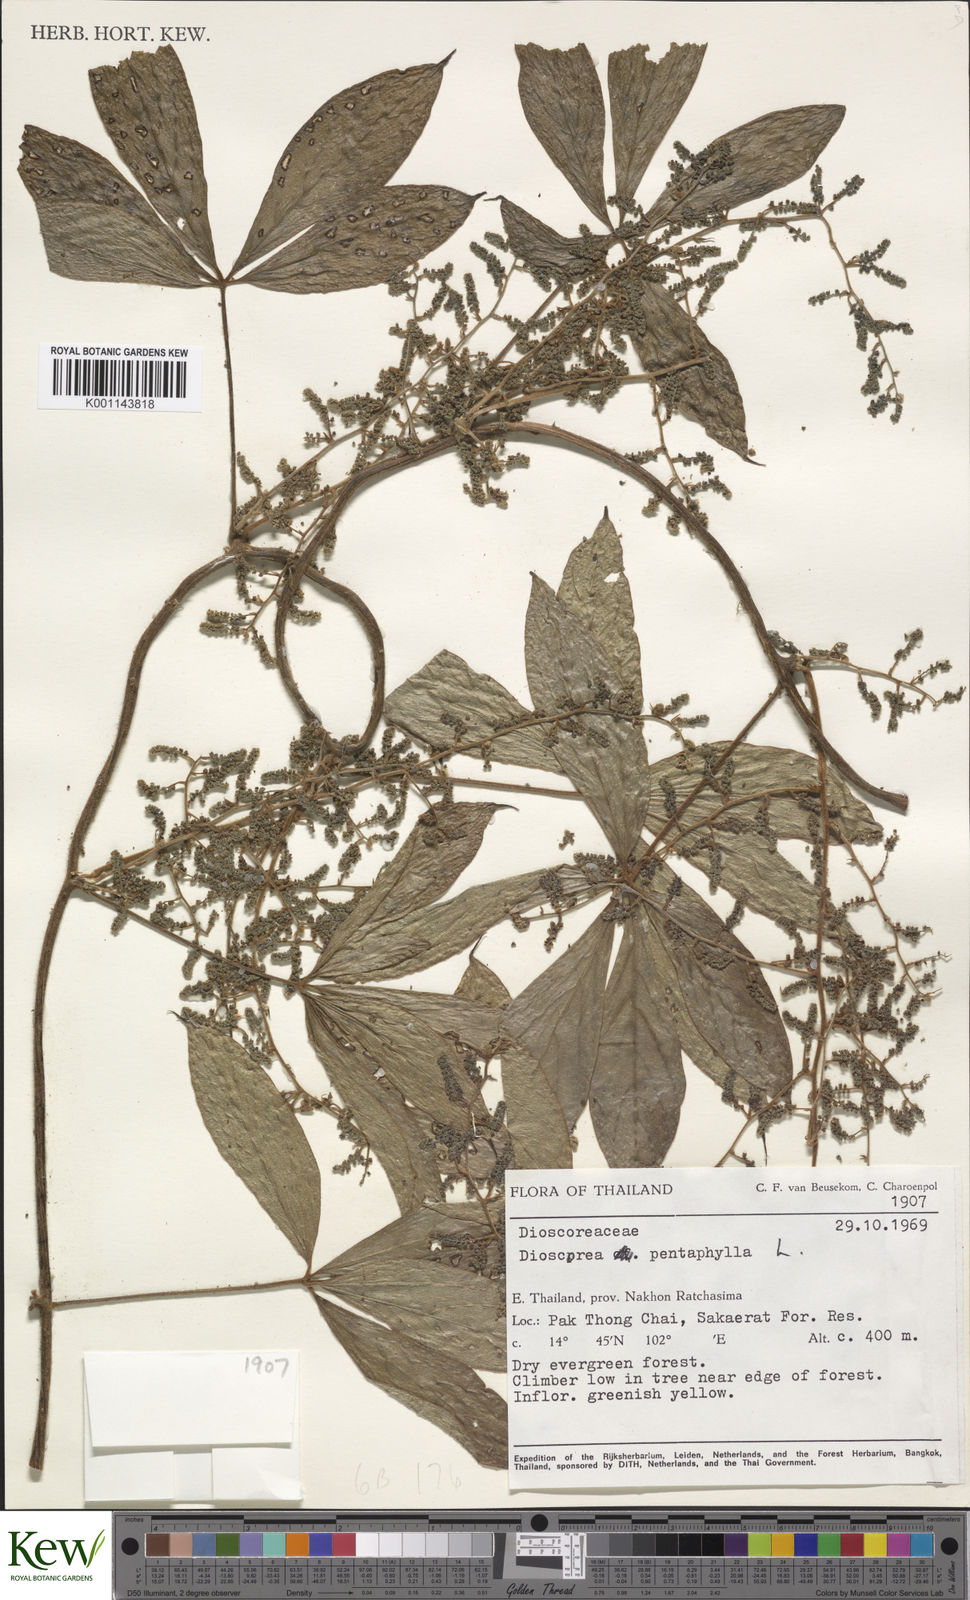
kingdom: Plantae
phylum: Tracheophyta
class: Liliopsida
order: Dioscoreales
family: Dioscoreaceae
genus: Dioscorea
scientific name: Dioscorea pierrei
